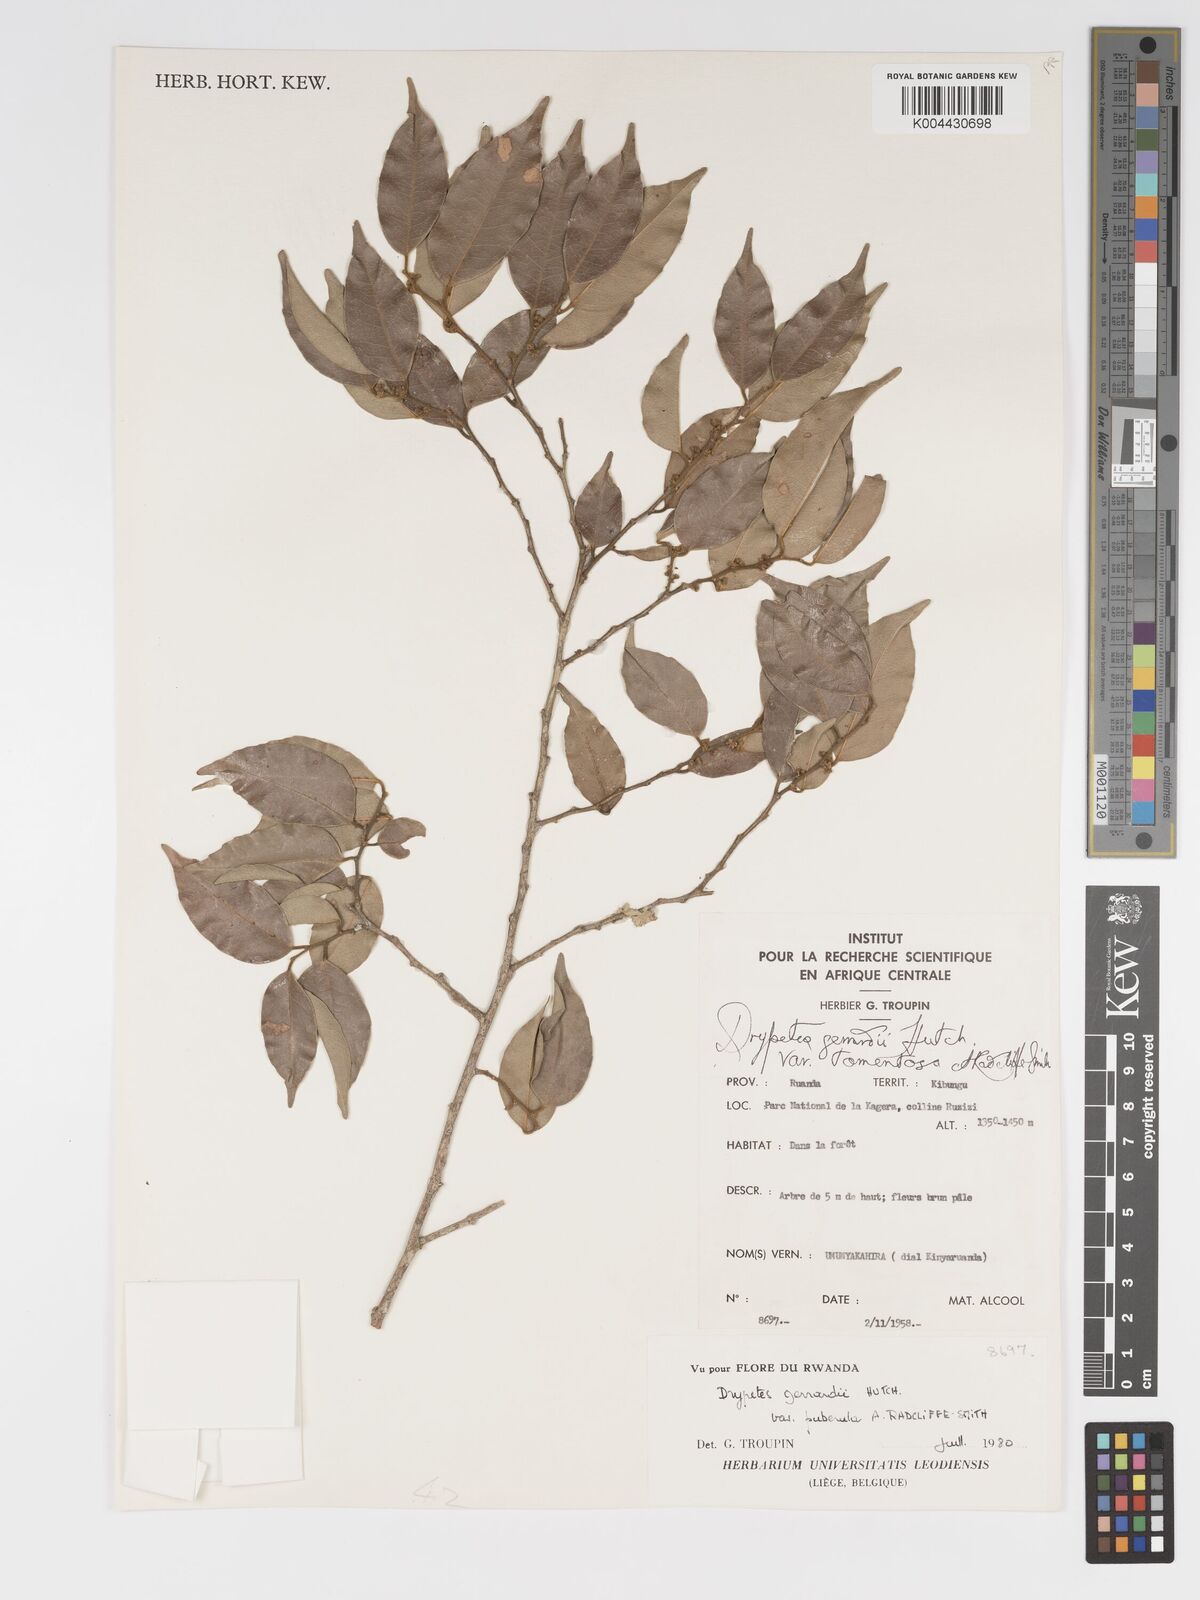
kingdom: Plantae
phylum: Tracheophyta
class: Magnoliopsida
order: Malpighiales
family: Putranjivaceae
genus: Drypetes
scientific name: Drypetes gerrardii
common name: Forest ironplum
